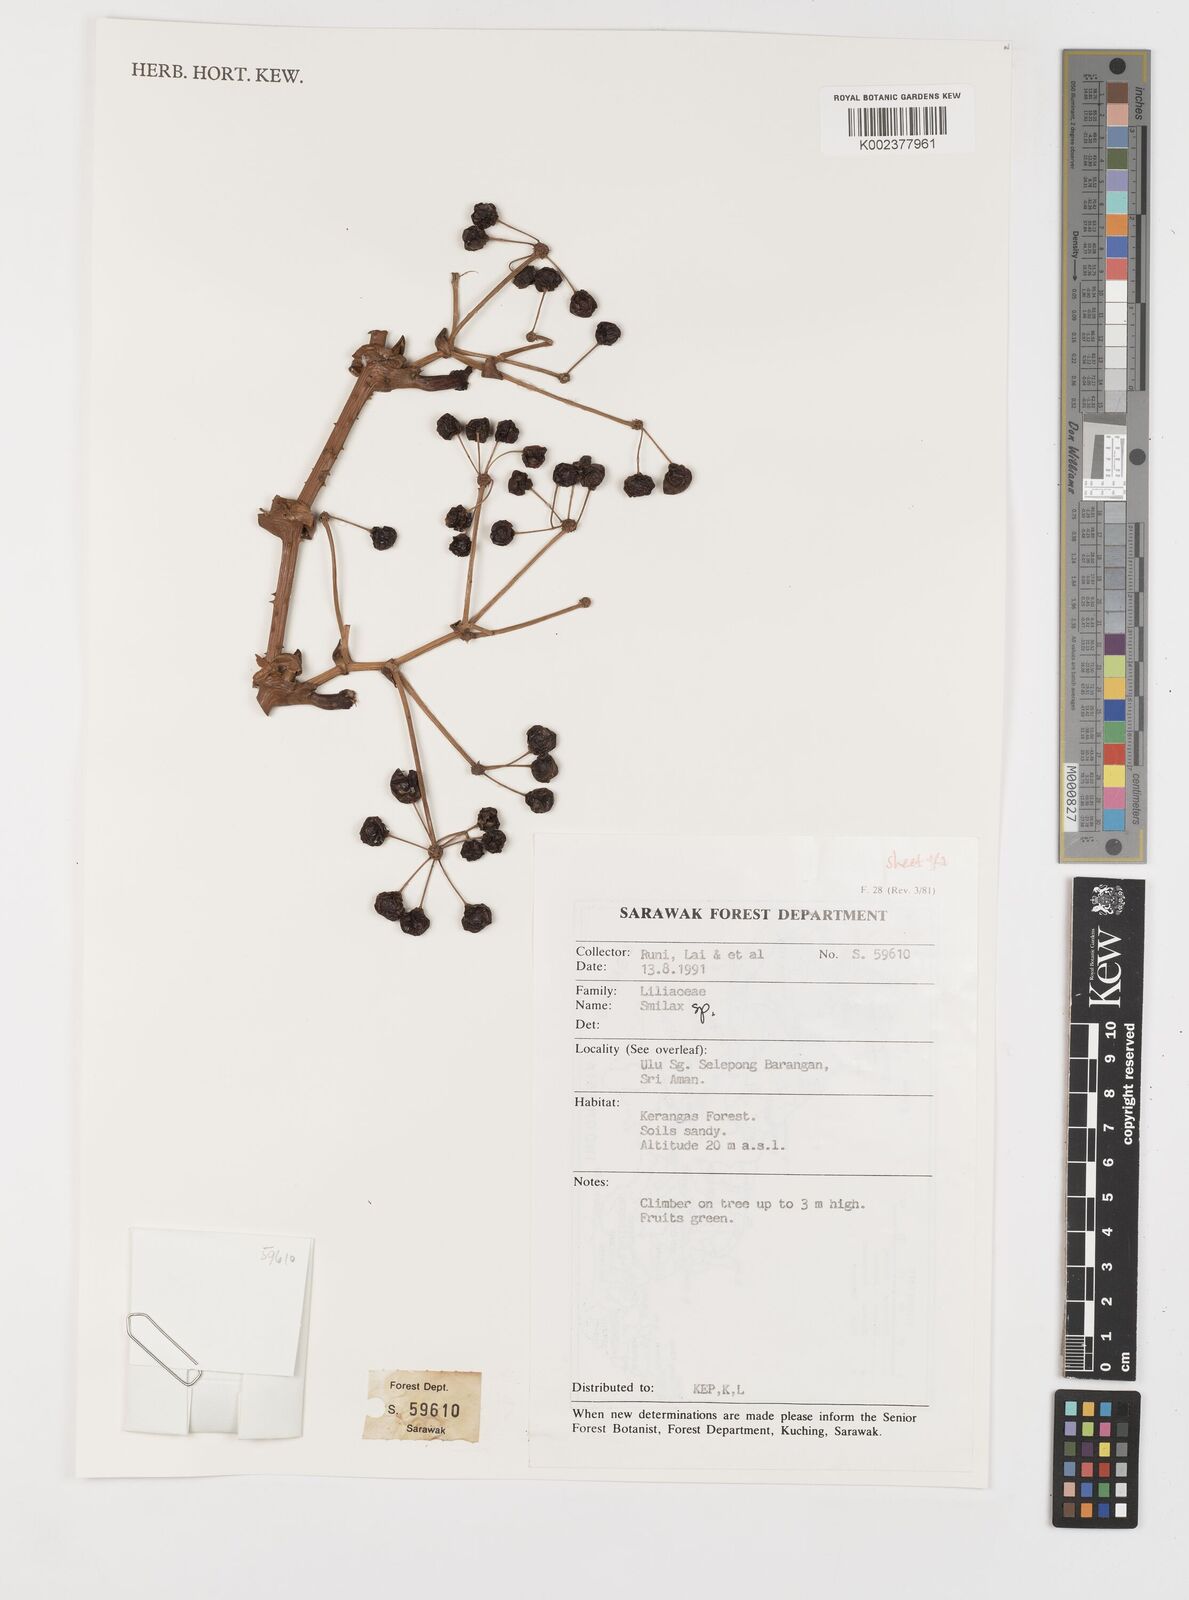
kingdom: Plantae
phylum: Tracheophyta
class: Liliopsida
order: Liliales
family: Smilacaceae
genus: Smilax
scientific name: Smilax
